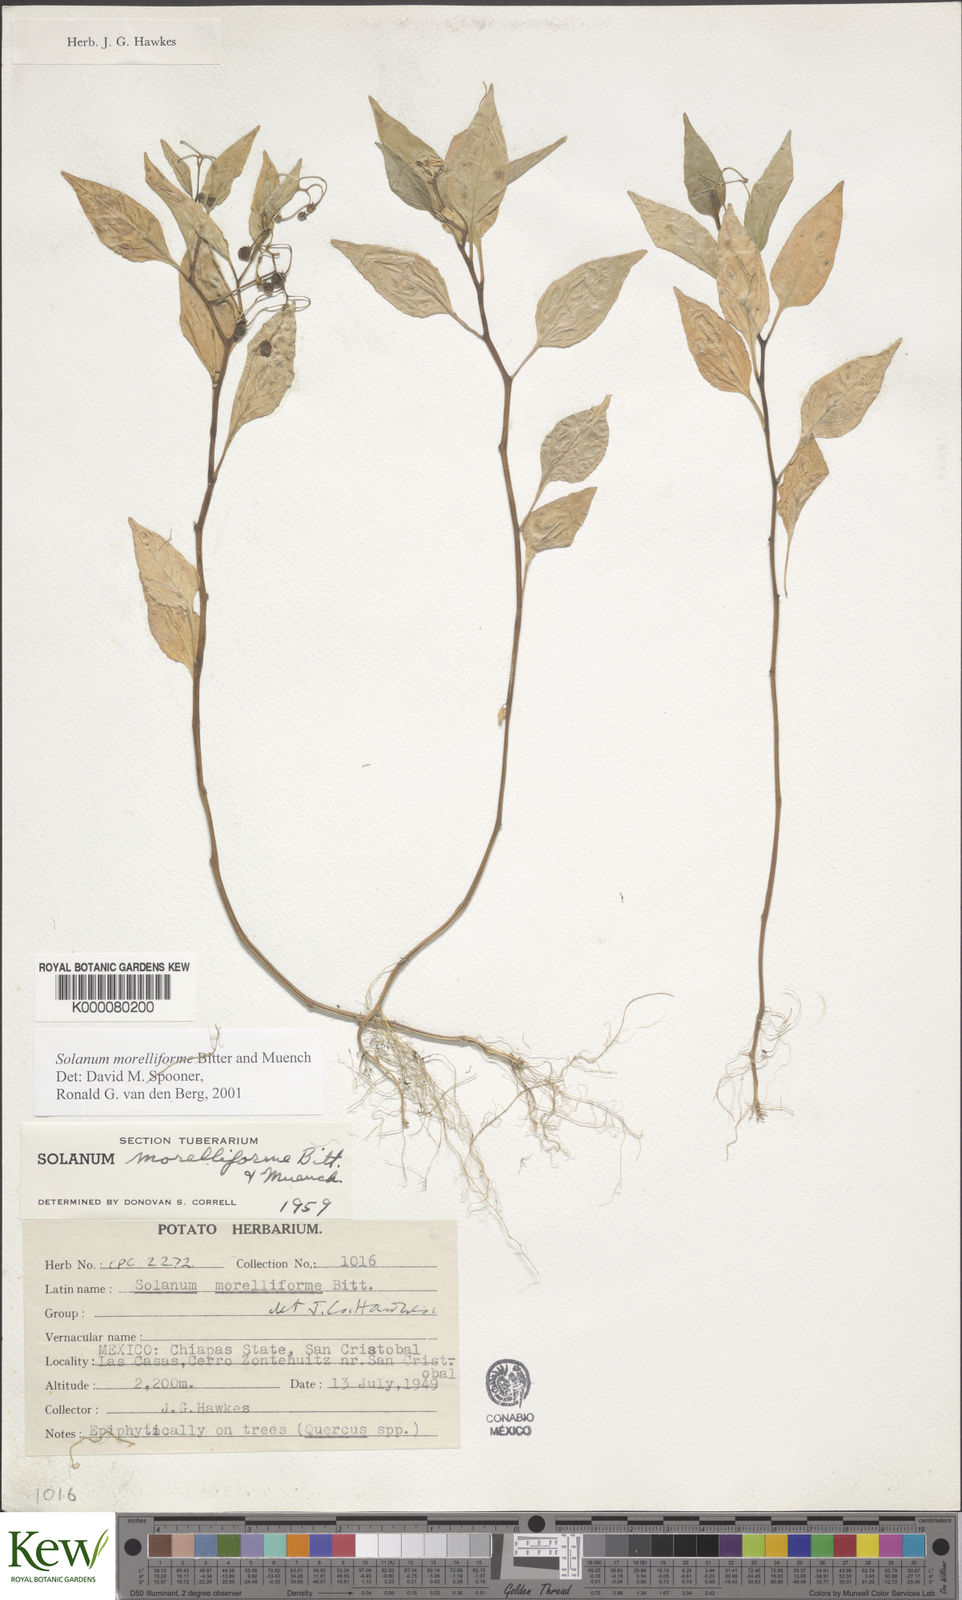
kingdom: Plantae
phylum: Tracheophyta
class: Magnoliopsida
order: Solanales
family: Solanaceae
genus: Solanum
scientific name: Solanum morelliforme
